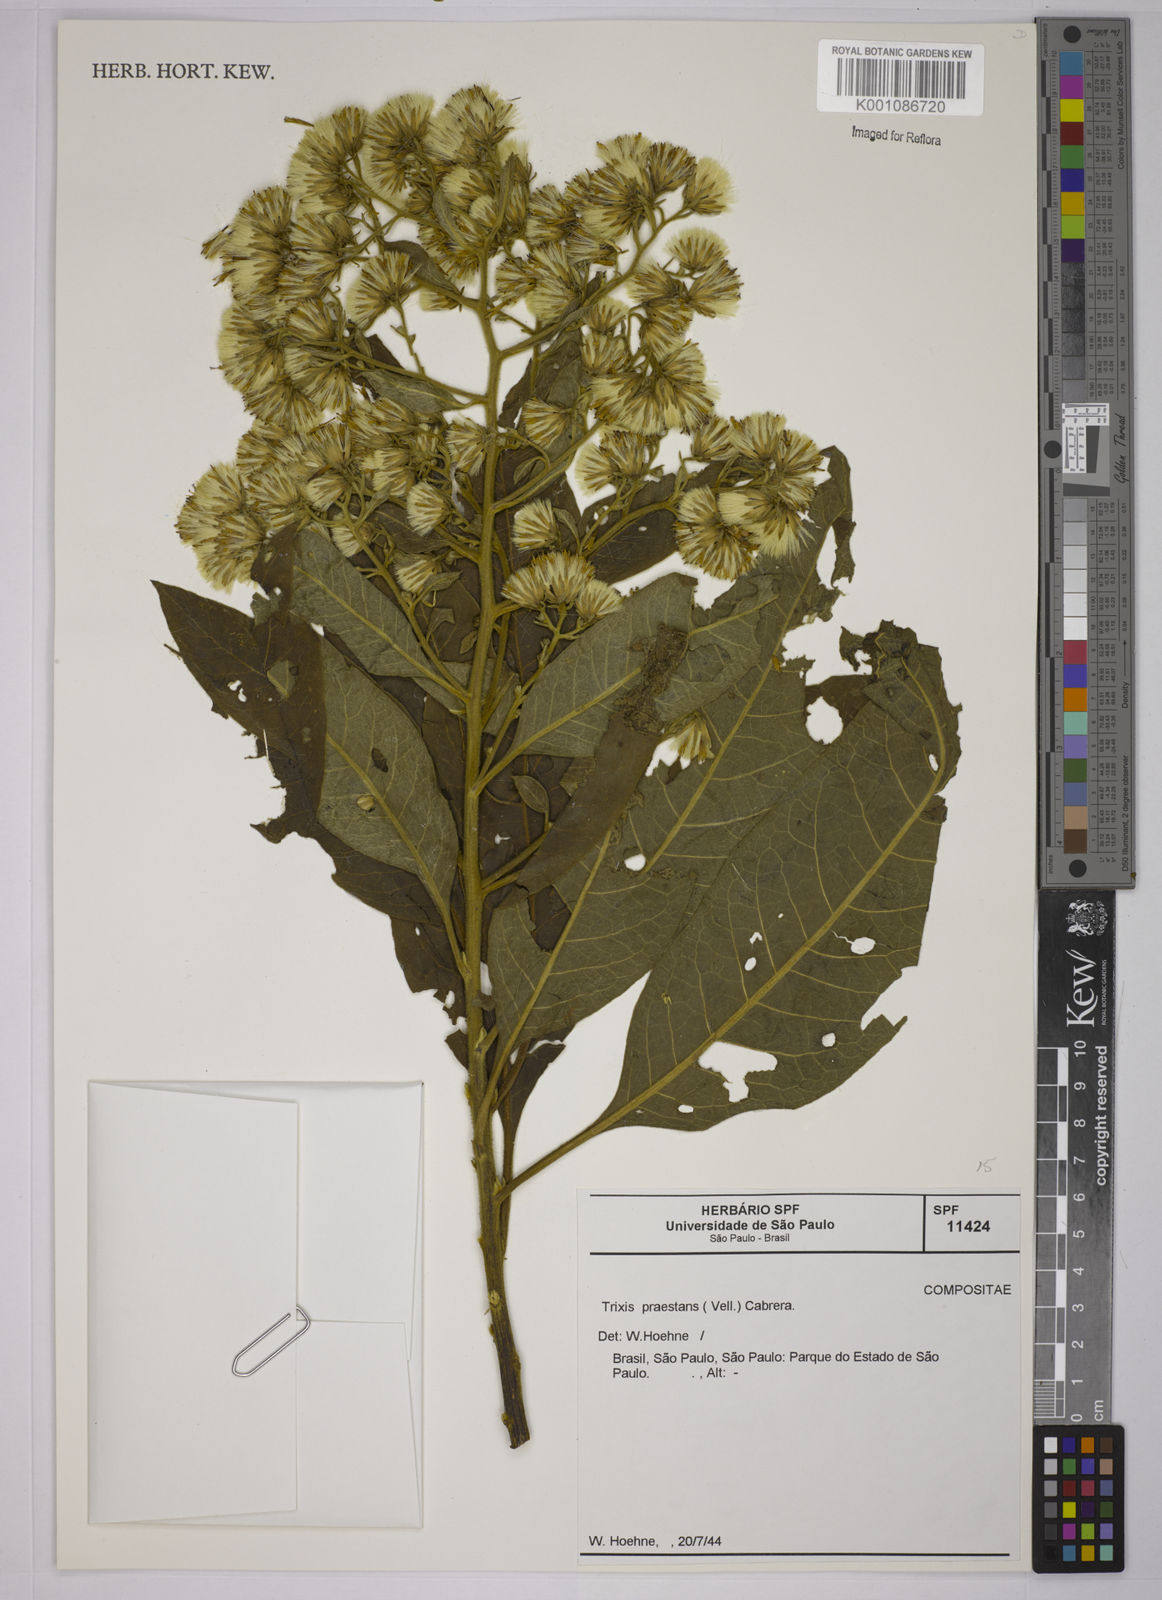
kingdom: Plantae
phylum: Tracheophyta
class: Magnoliopsida
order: Asterales
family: Asteraceae
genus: Trixis
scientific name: Trixis praestans
